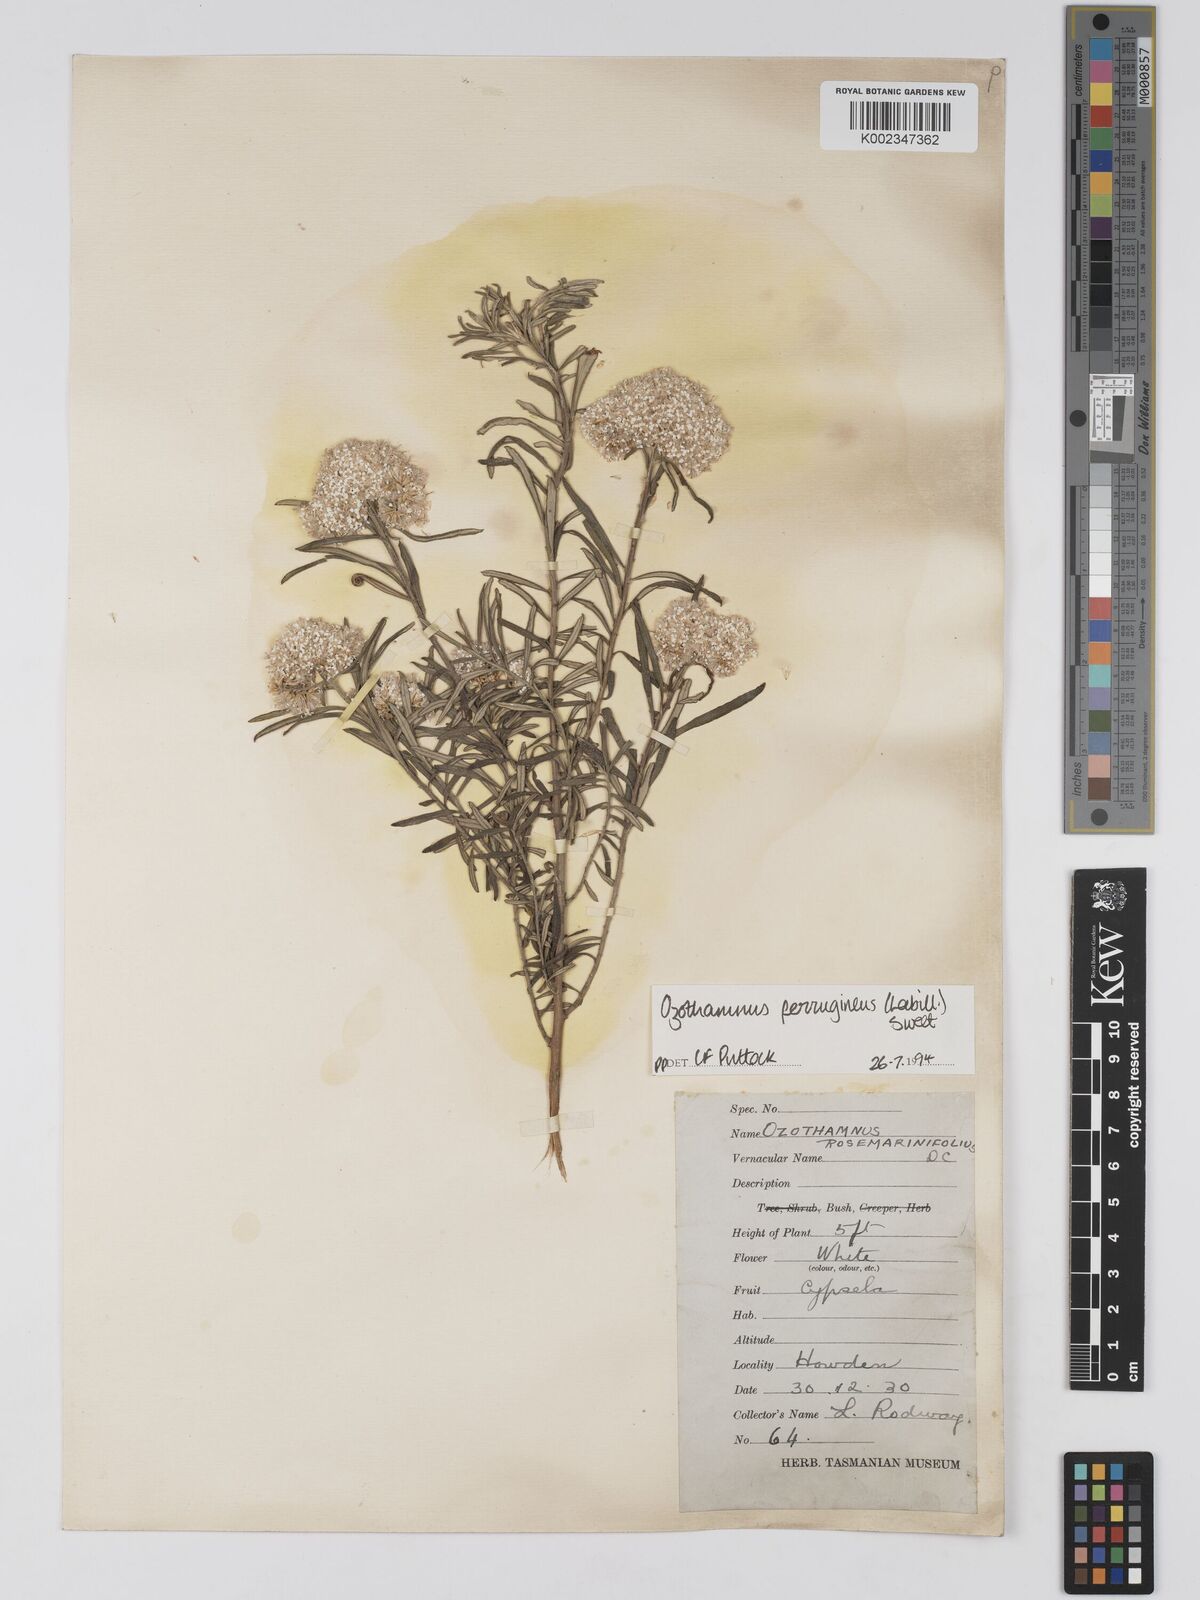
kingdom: Plantae
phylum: Tracheophyta
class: Magnoliopsida
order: Asterales
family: Asteraceae
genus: Ozothamnus
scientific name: Ozothamnus argophyllus
